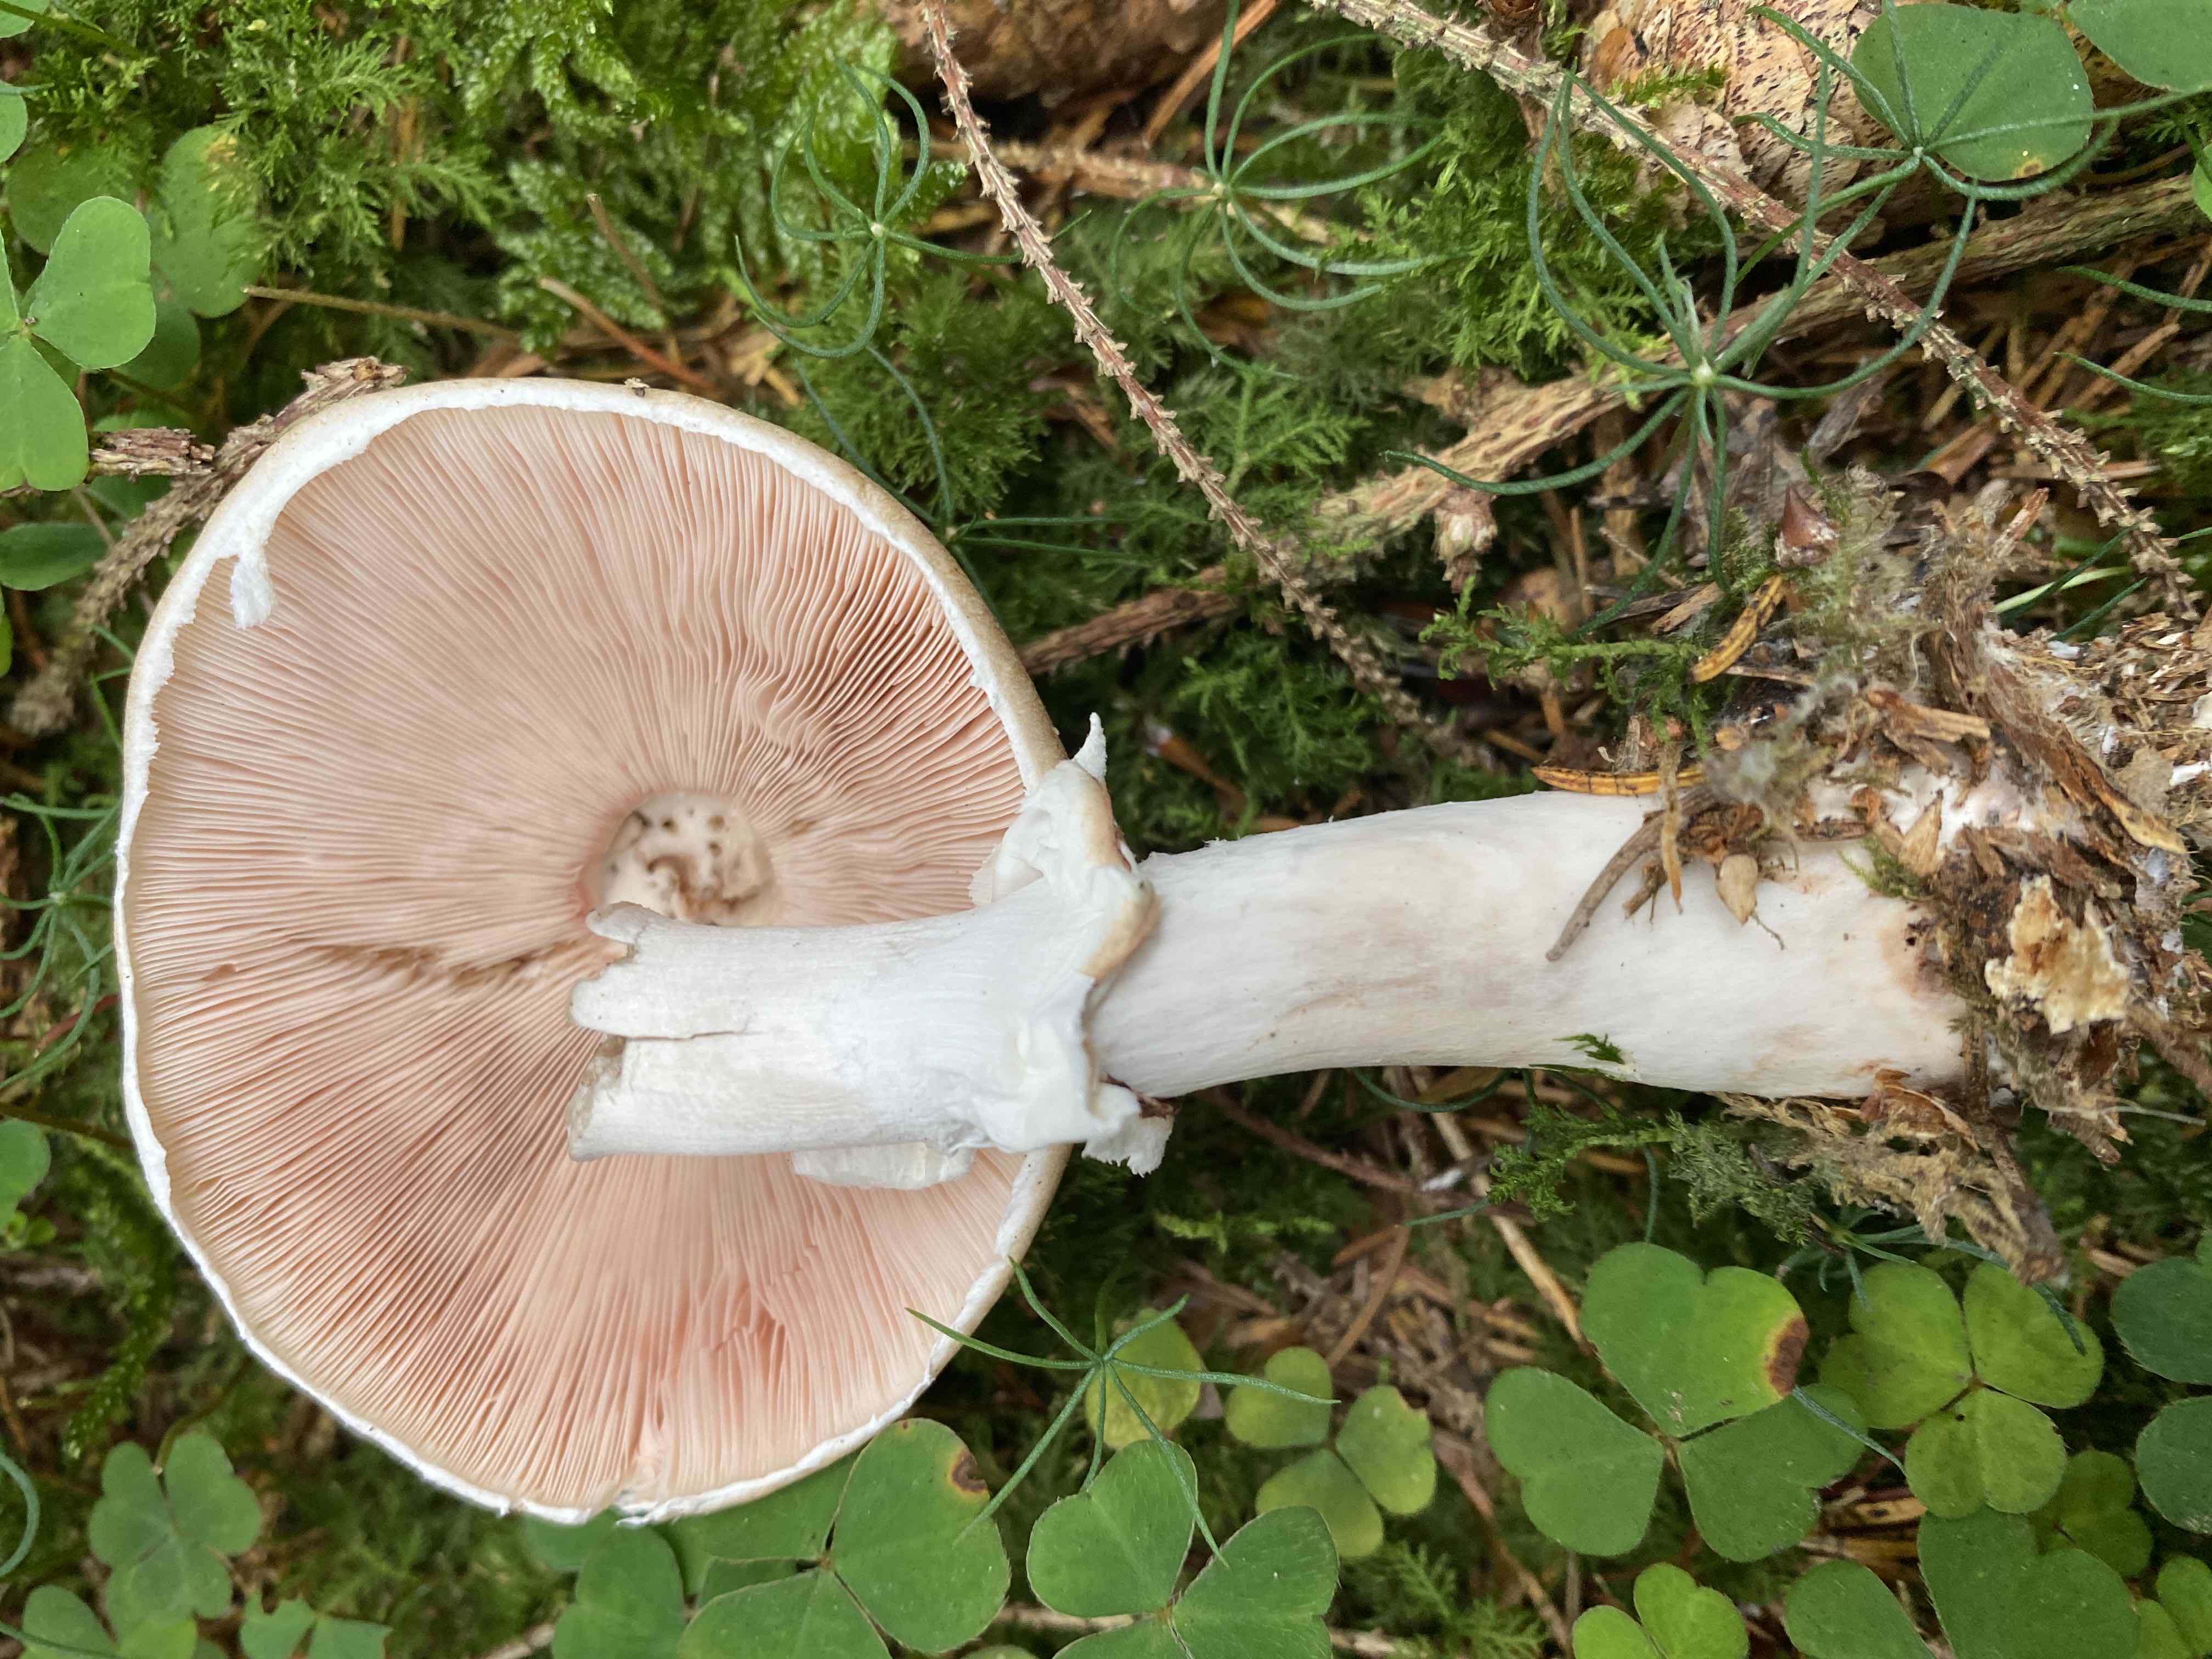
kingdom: Fungi
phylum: Basidiomycota
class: Agaricomycetes
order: Agaricales
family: Agaricaceae
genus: Agaricus
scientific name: Agaricus impudicus
